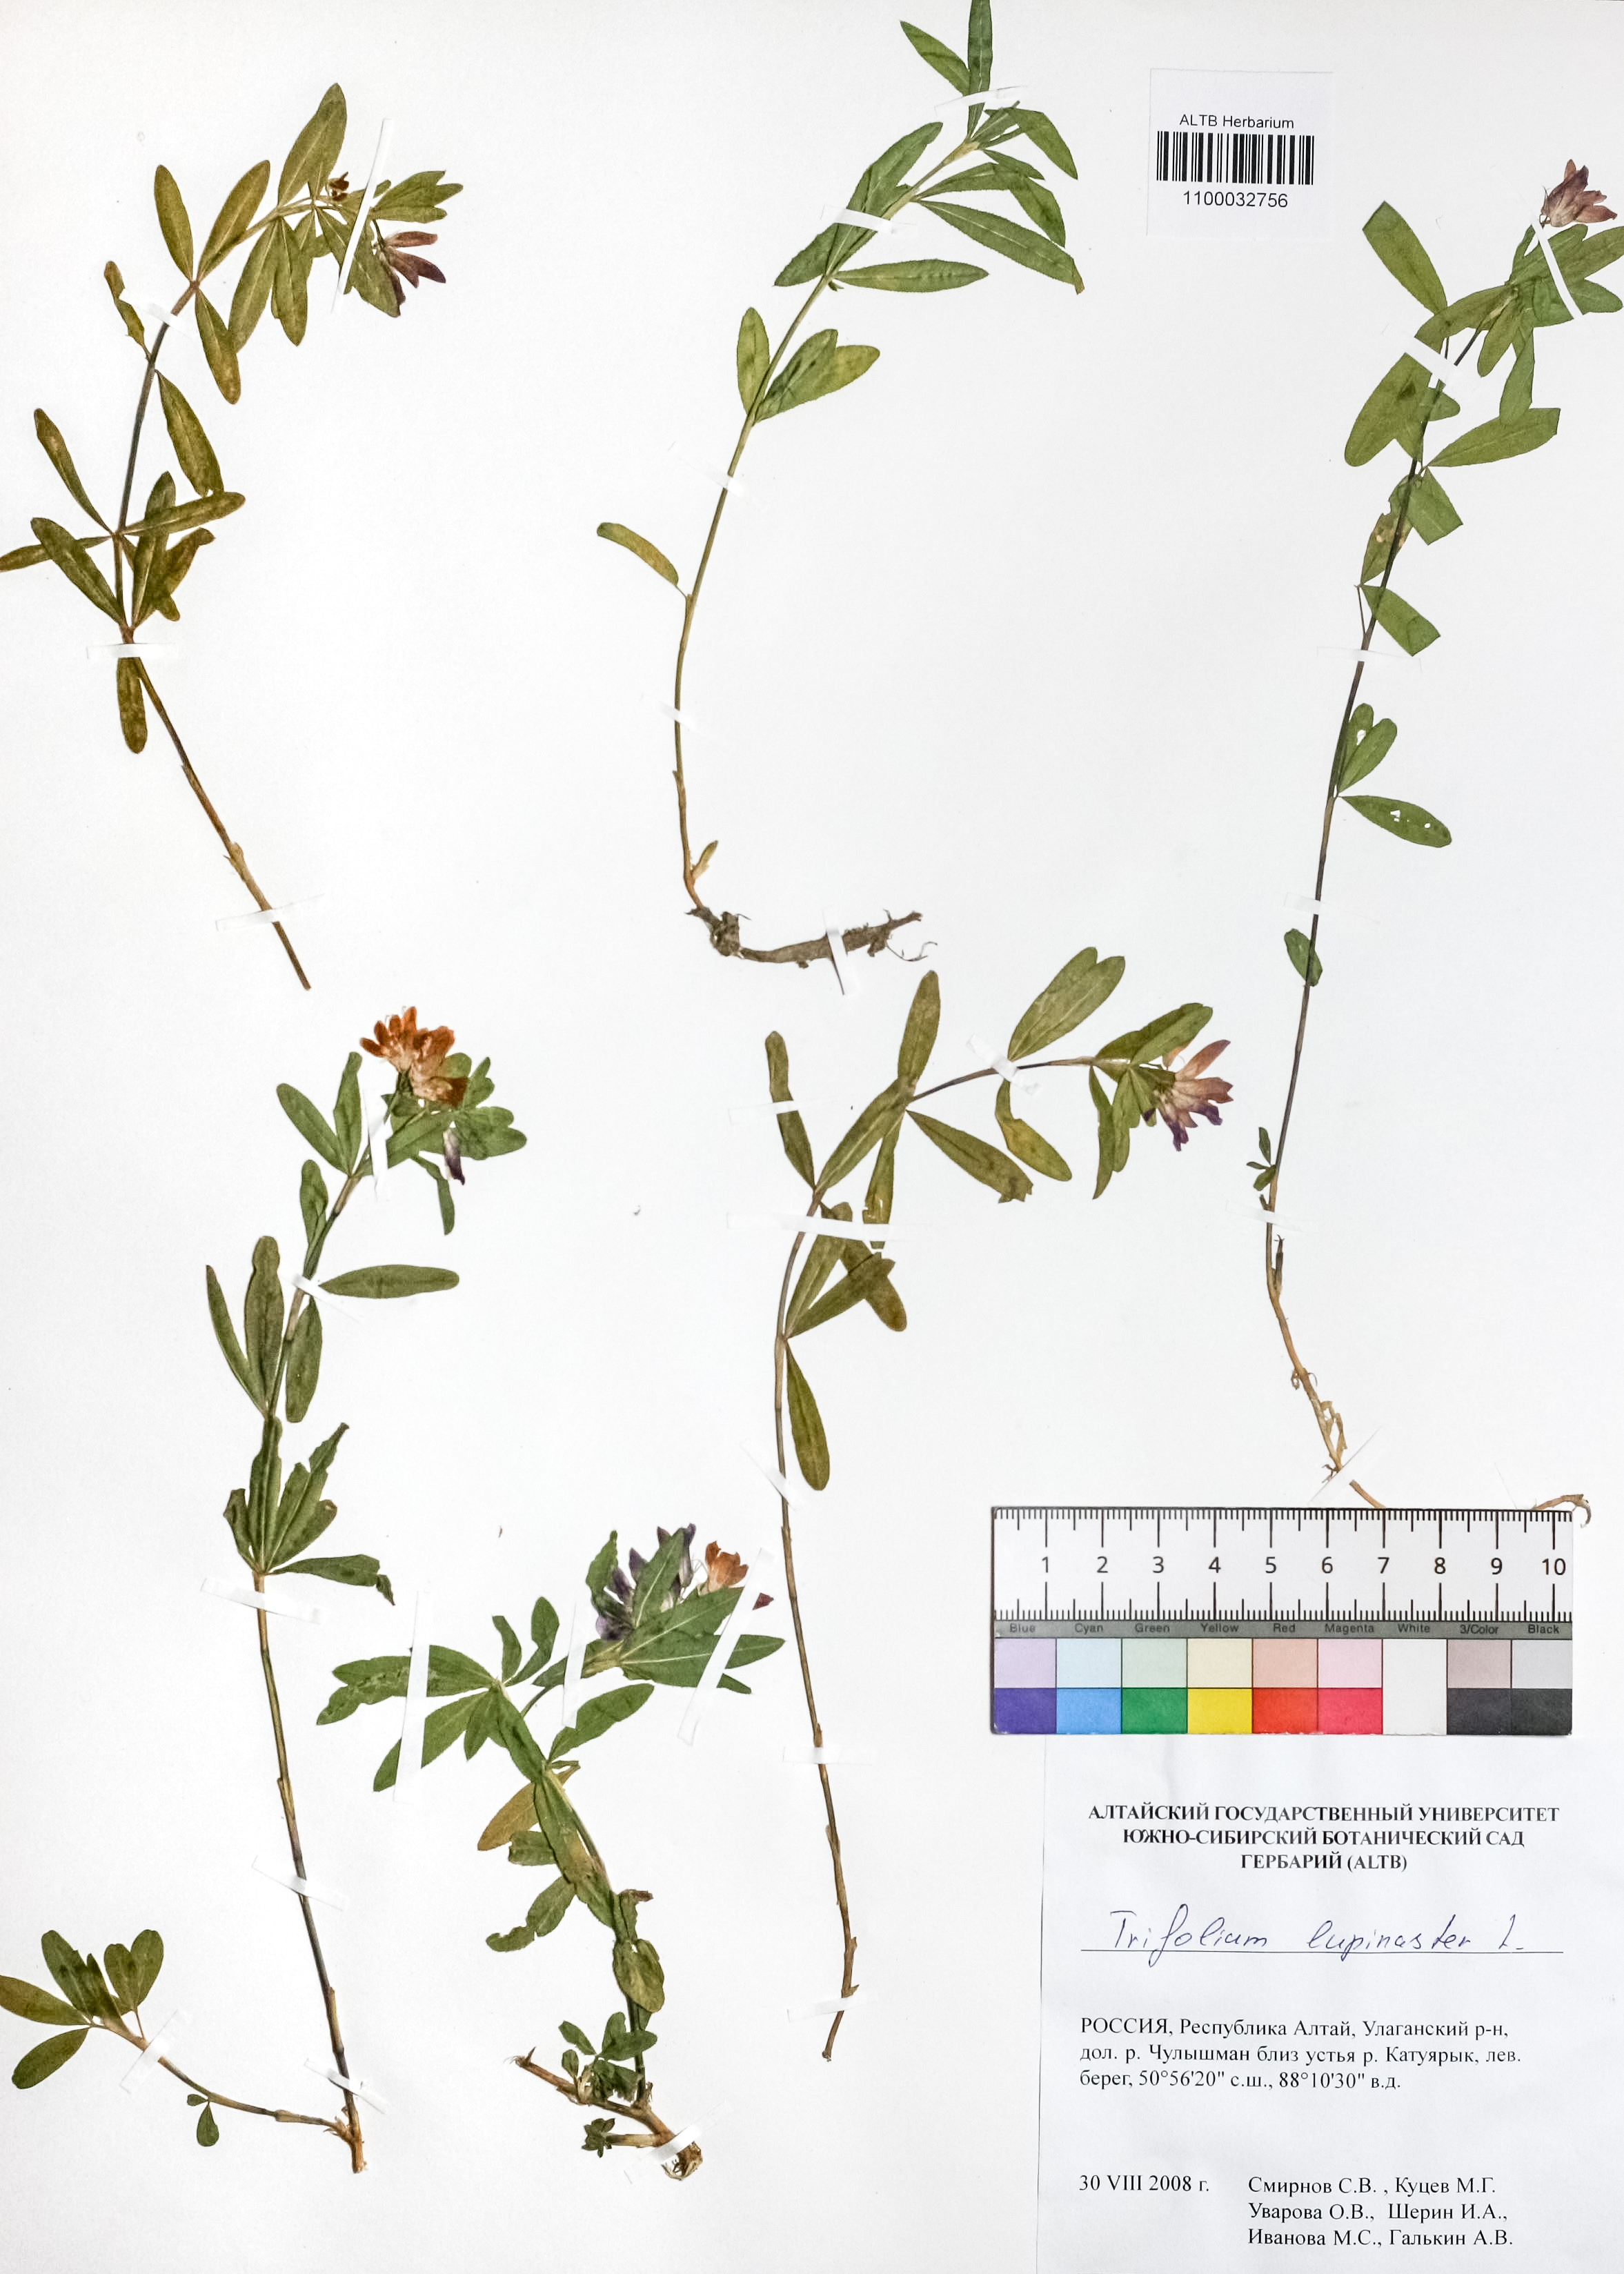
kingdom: Plantae
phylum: Tracheophyta
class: Magnoliopsida
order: Fabales
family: Fabaceae
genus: Trifolium
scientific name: Trifolium lupinaster
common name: Lupine clover
